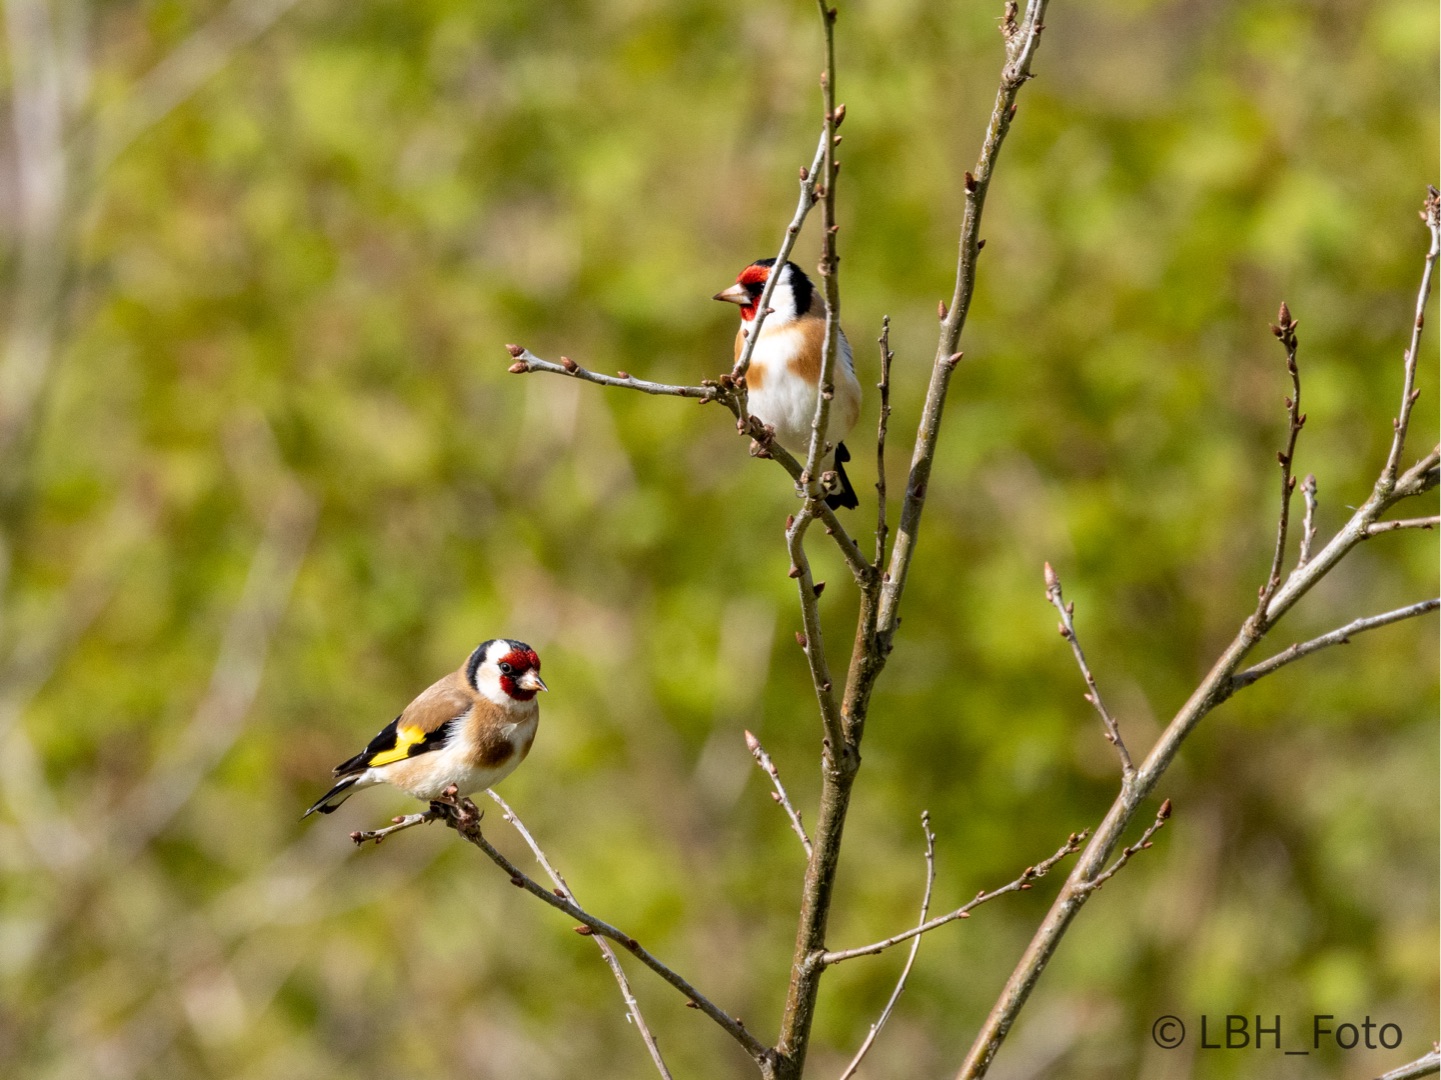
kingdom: Animalia
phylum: Chordata
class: Aves
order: Passeriformes
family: Fringillidae
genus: Carduelis
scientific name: Carduelis carduelis
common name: Stillits
